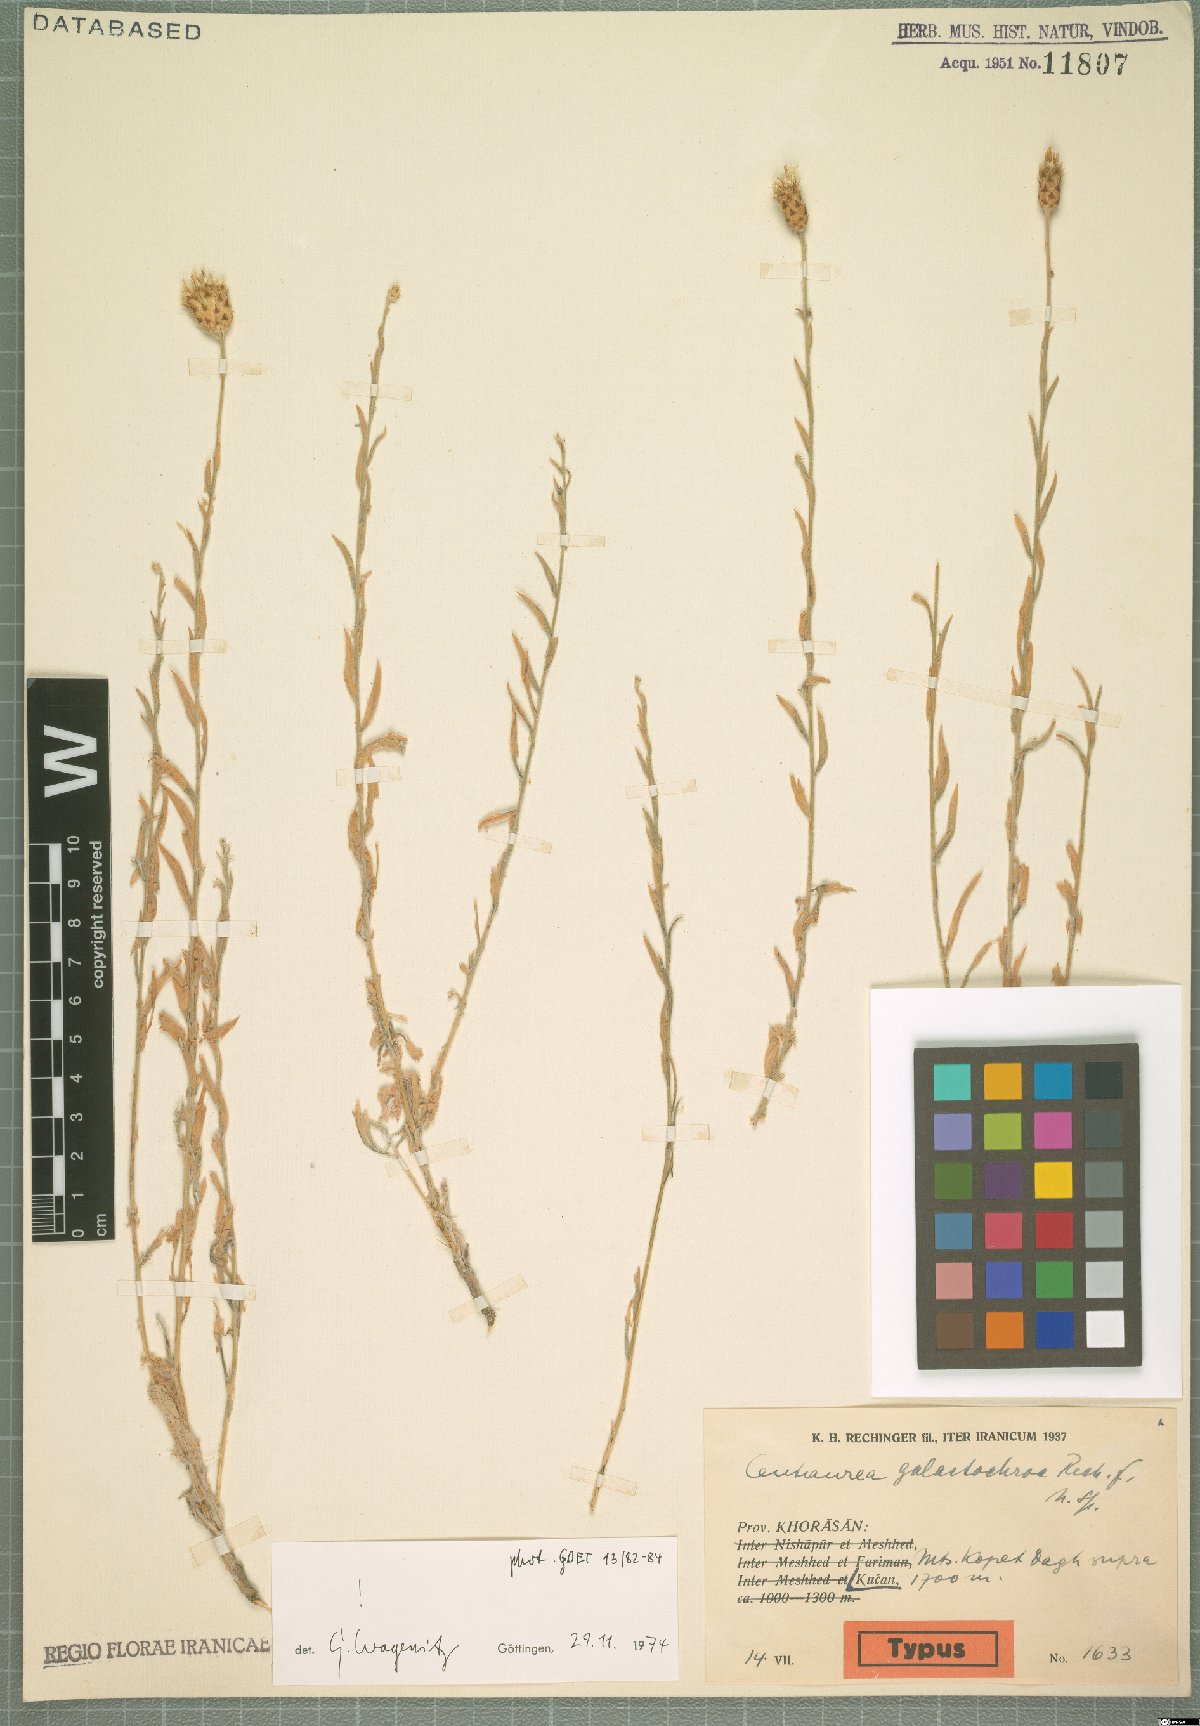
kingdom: Plantae
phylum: Tracheophyta
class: Magnoliopsida
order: Asterales
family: Asteraceae
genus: Psephellus
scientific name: Psephellus galactochroa
